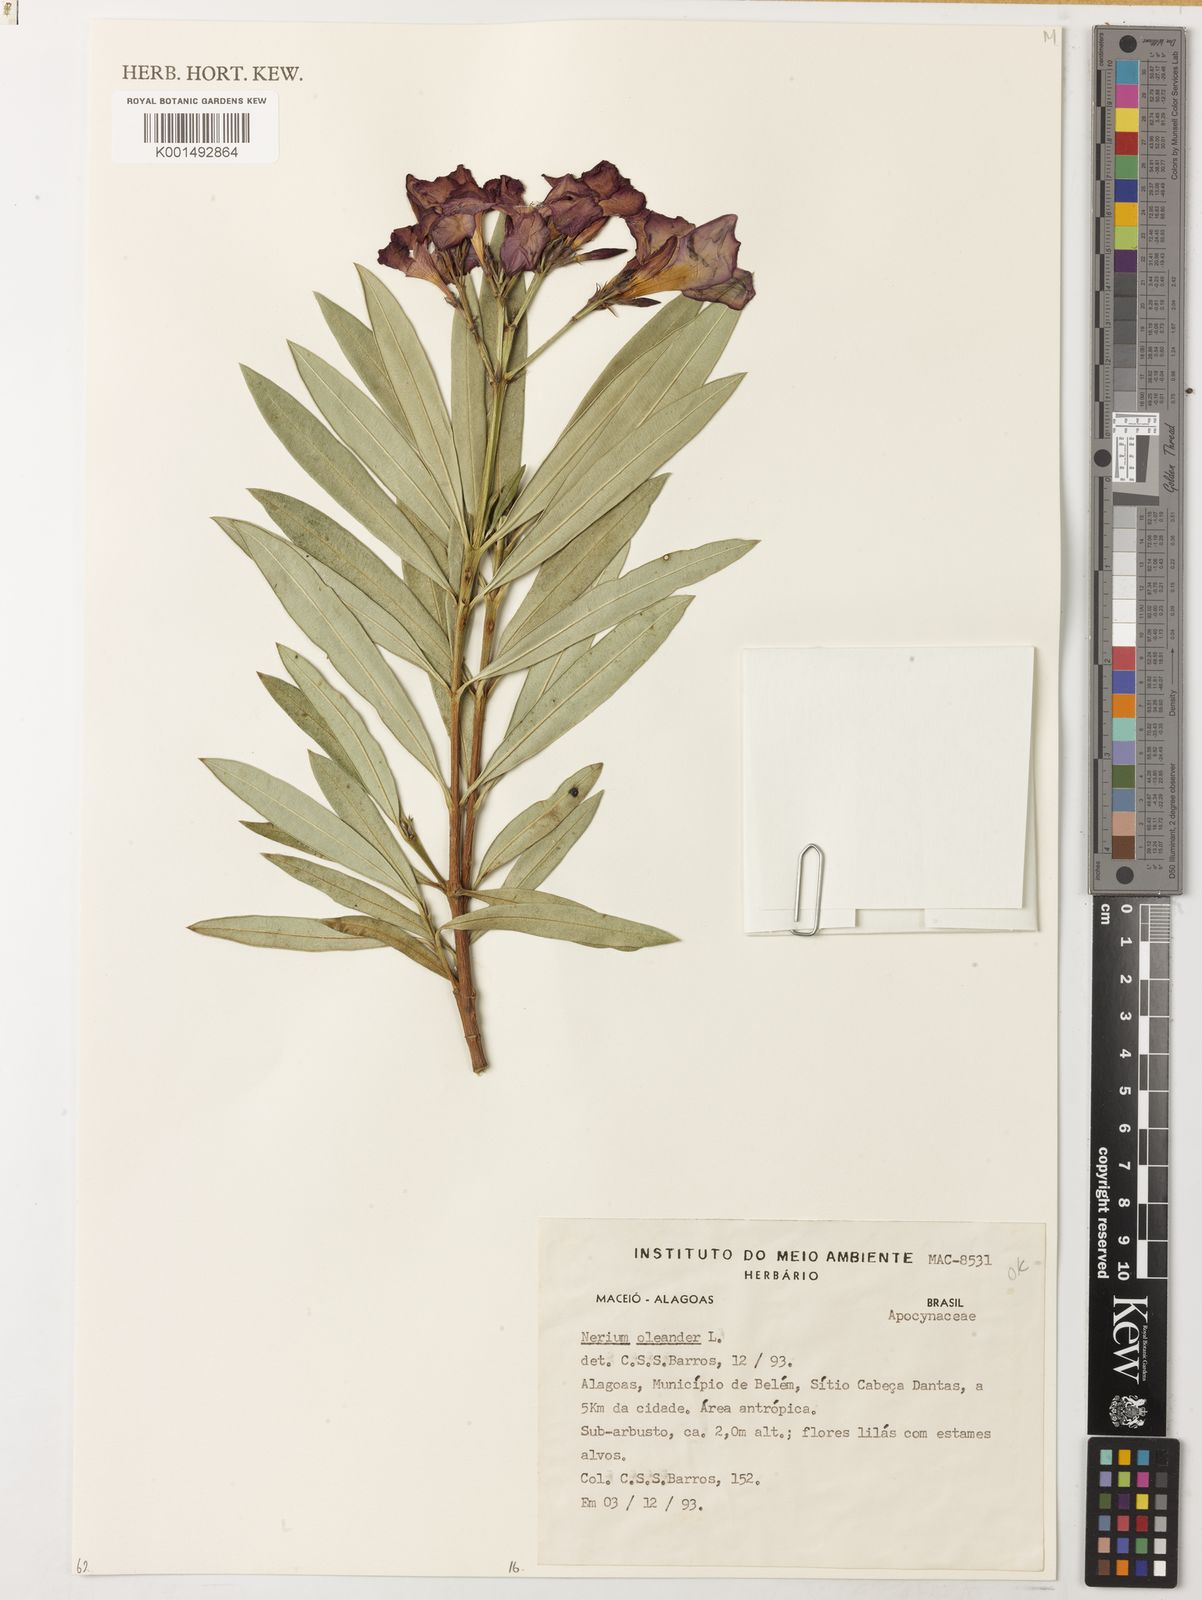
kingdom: Plantae
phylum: Tracheophyta
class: Magnoliopsida
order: Gentianales
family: Apocynaceae
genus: Nerium
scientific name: Nerium oleander
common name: Oleander
